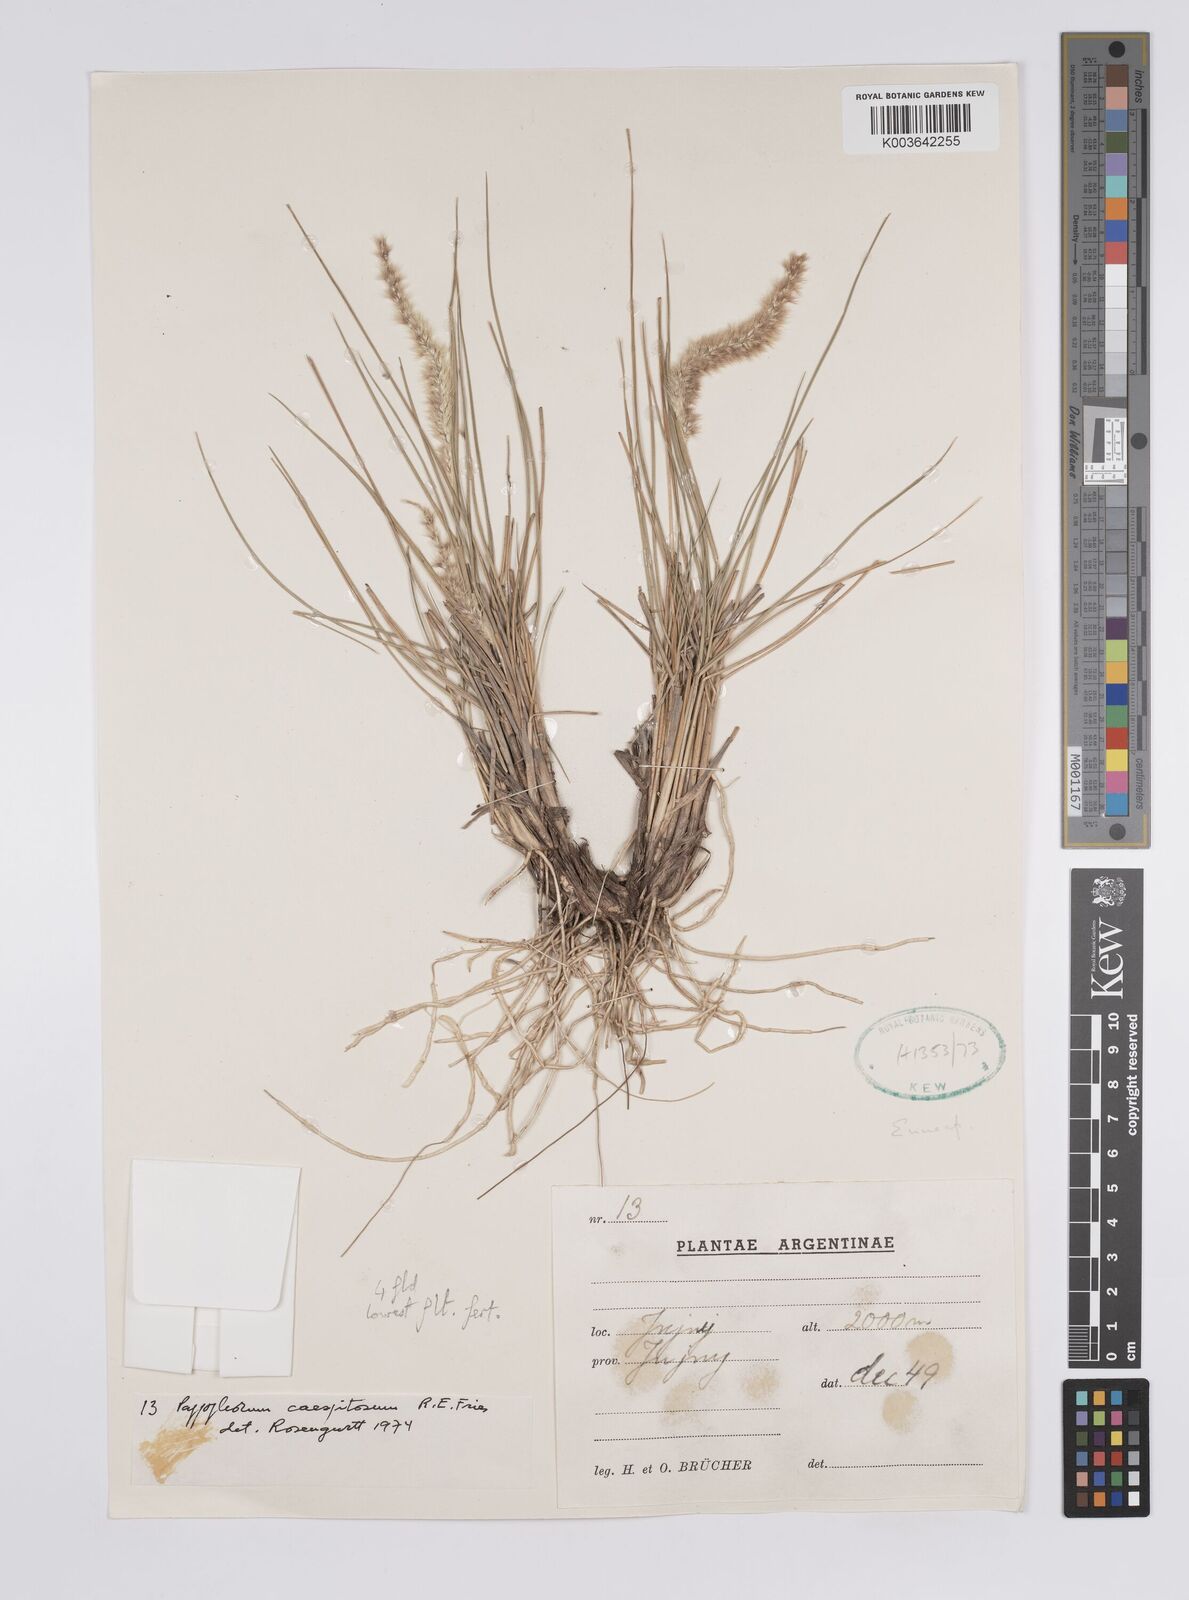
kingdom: Plantae
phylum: Tracheophyta
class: Liliopsida
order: Poales
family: Poaceae
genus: Pappophorum
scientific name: Pappophorum caespitosum
